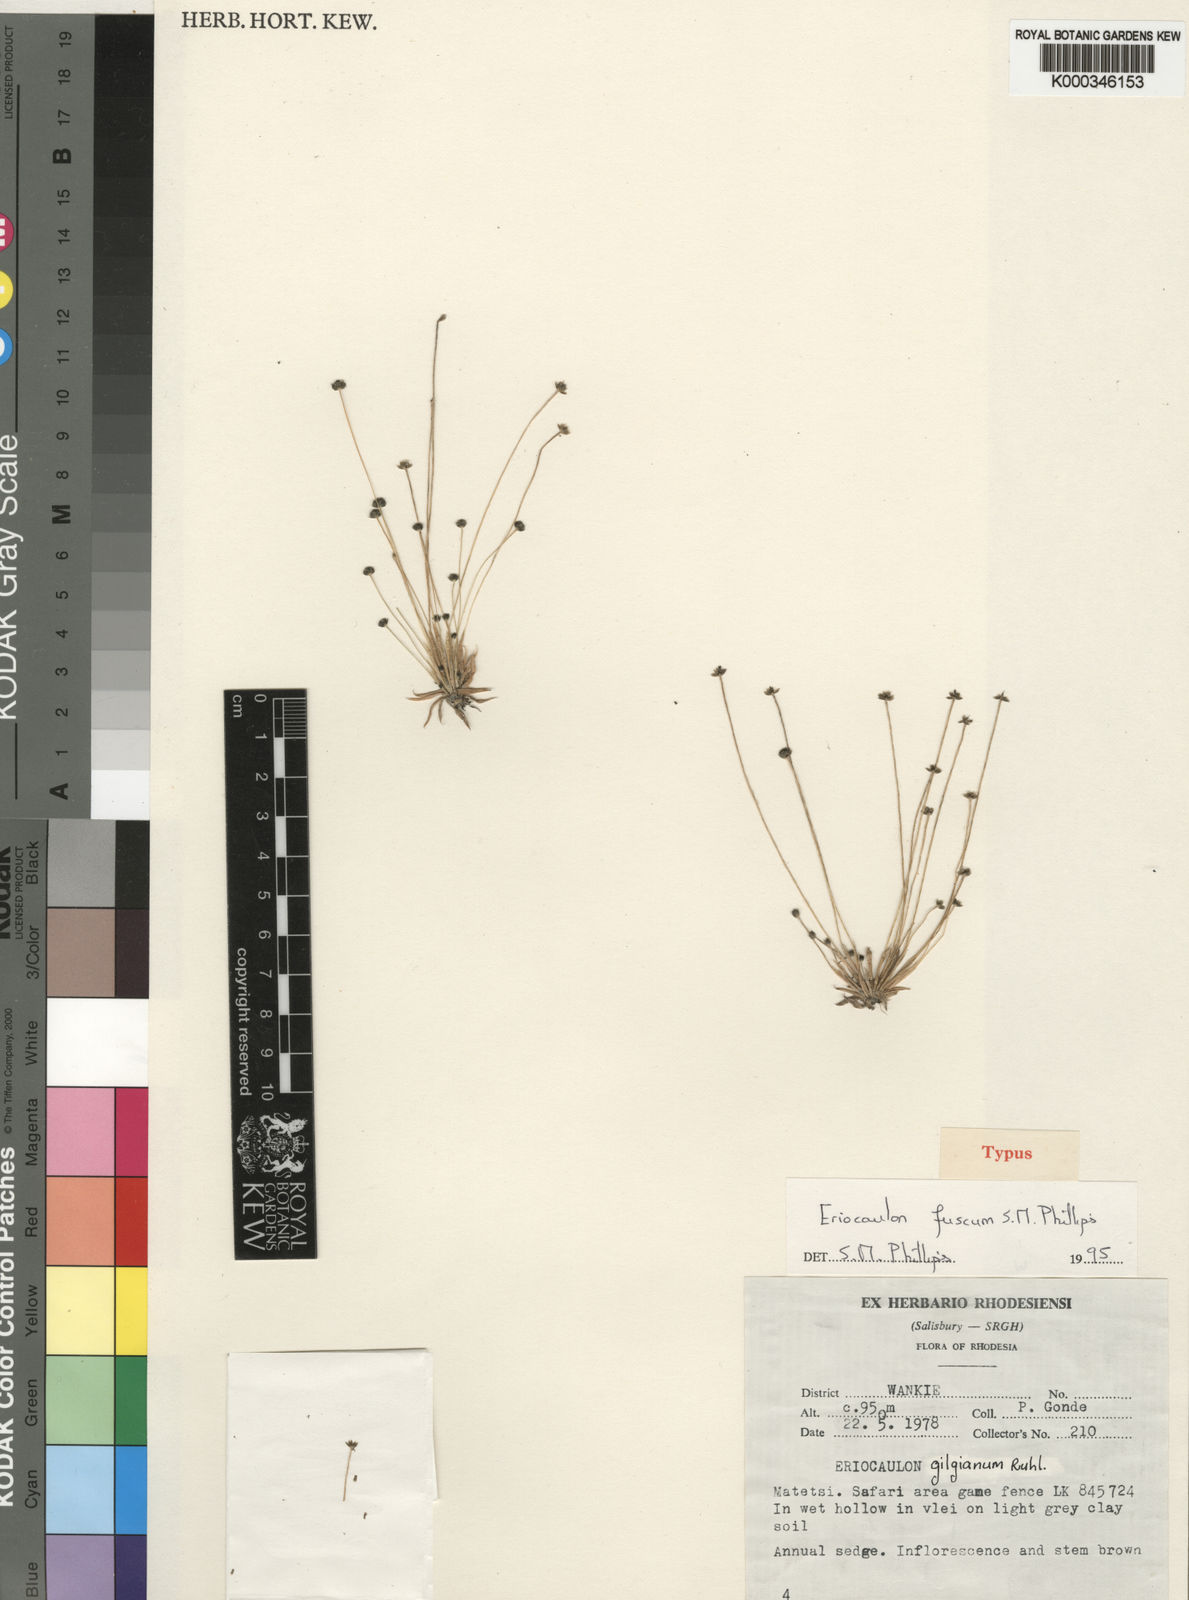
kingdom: Plantae
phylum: Tracheophyta
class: Liliopsida
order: Poales
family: Eriocaulaceae
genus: Eriocaulon
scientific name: Eriocaulon fuscum
